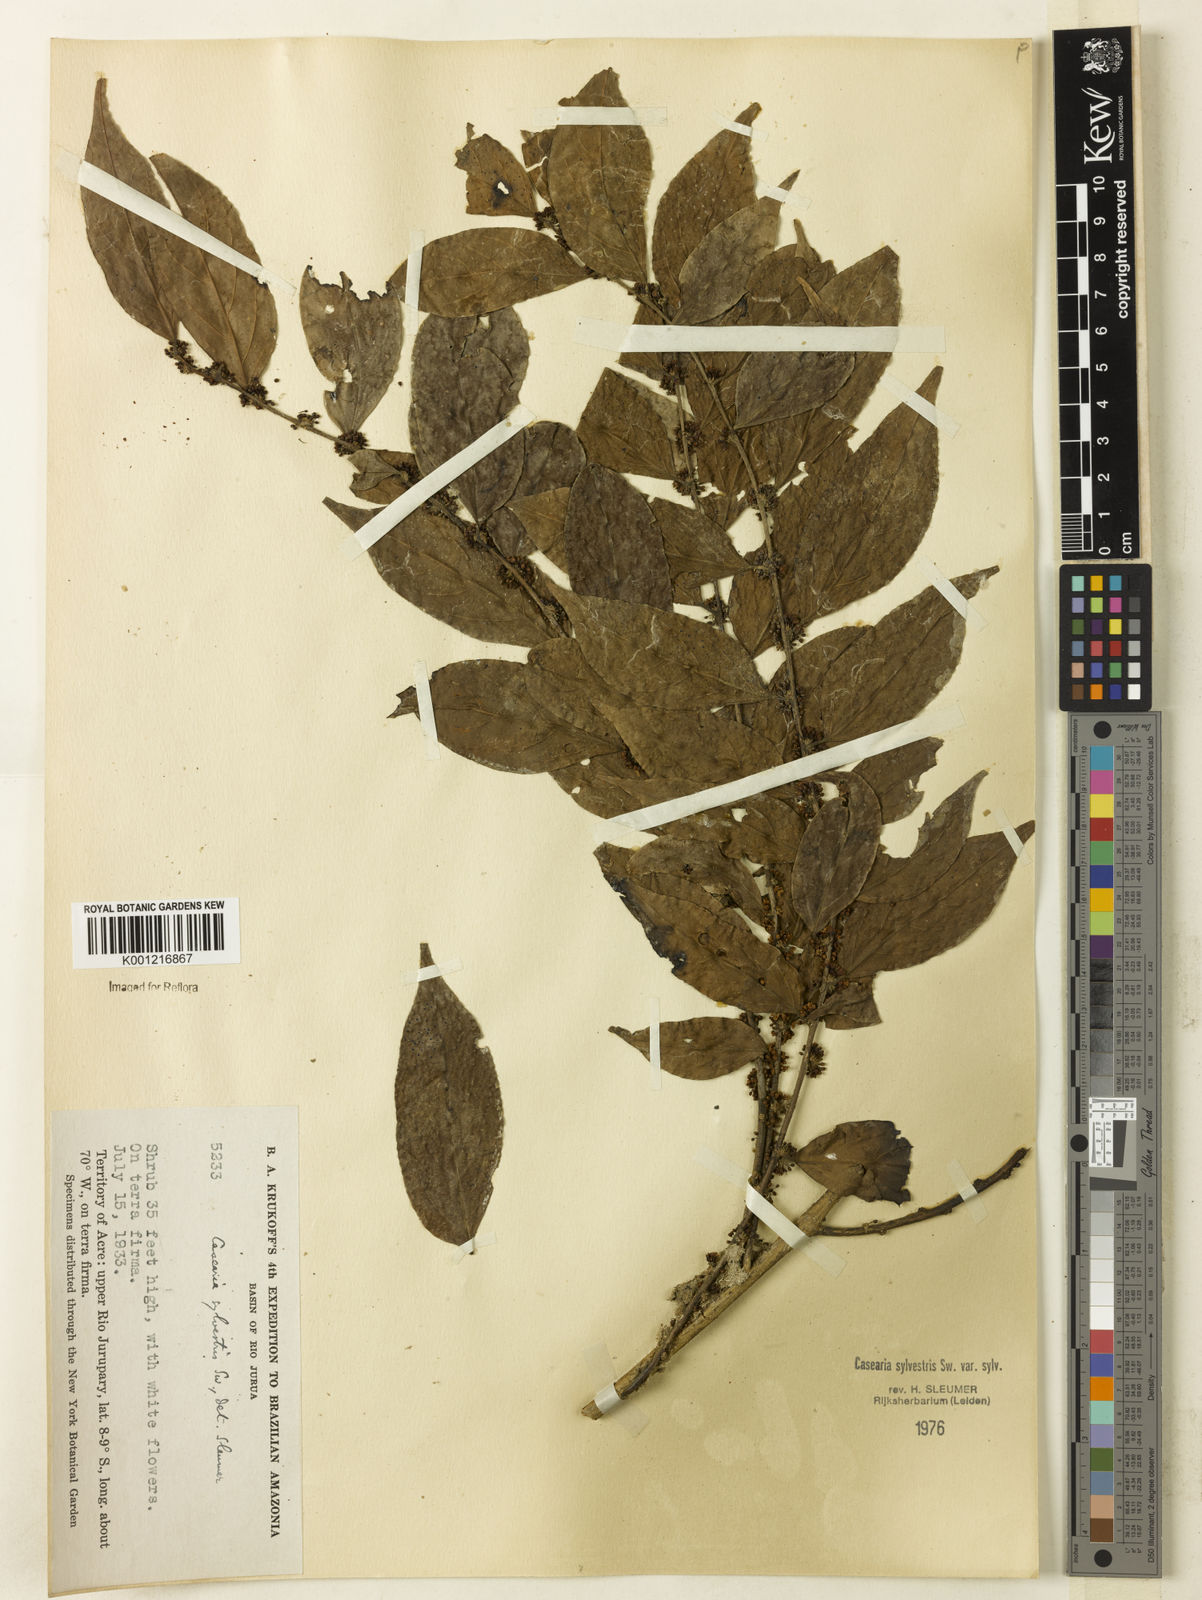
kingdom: Plantae
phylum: Tracheophyta
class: Magnoliopsida
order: Malpighiales
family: Salicaceae
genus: Casearia
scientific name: Casearia sylvestris
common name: Wild sage
